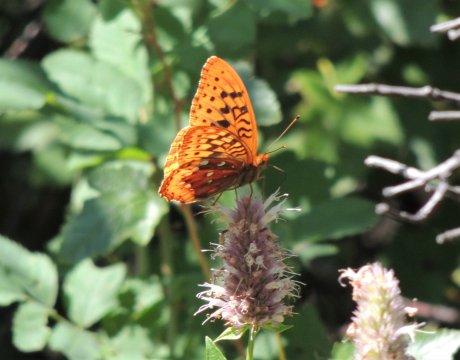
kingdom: Animalia
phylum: Arthropoda
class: Insecta
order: Lepidoptera
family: Nymphalidae
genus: Speyeria
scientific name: Speyeria cybele
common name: Great Spangled Fritillary
